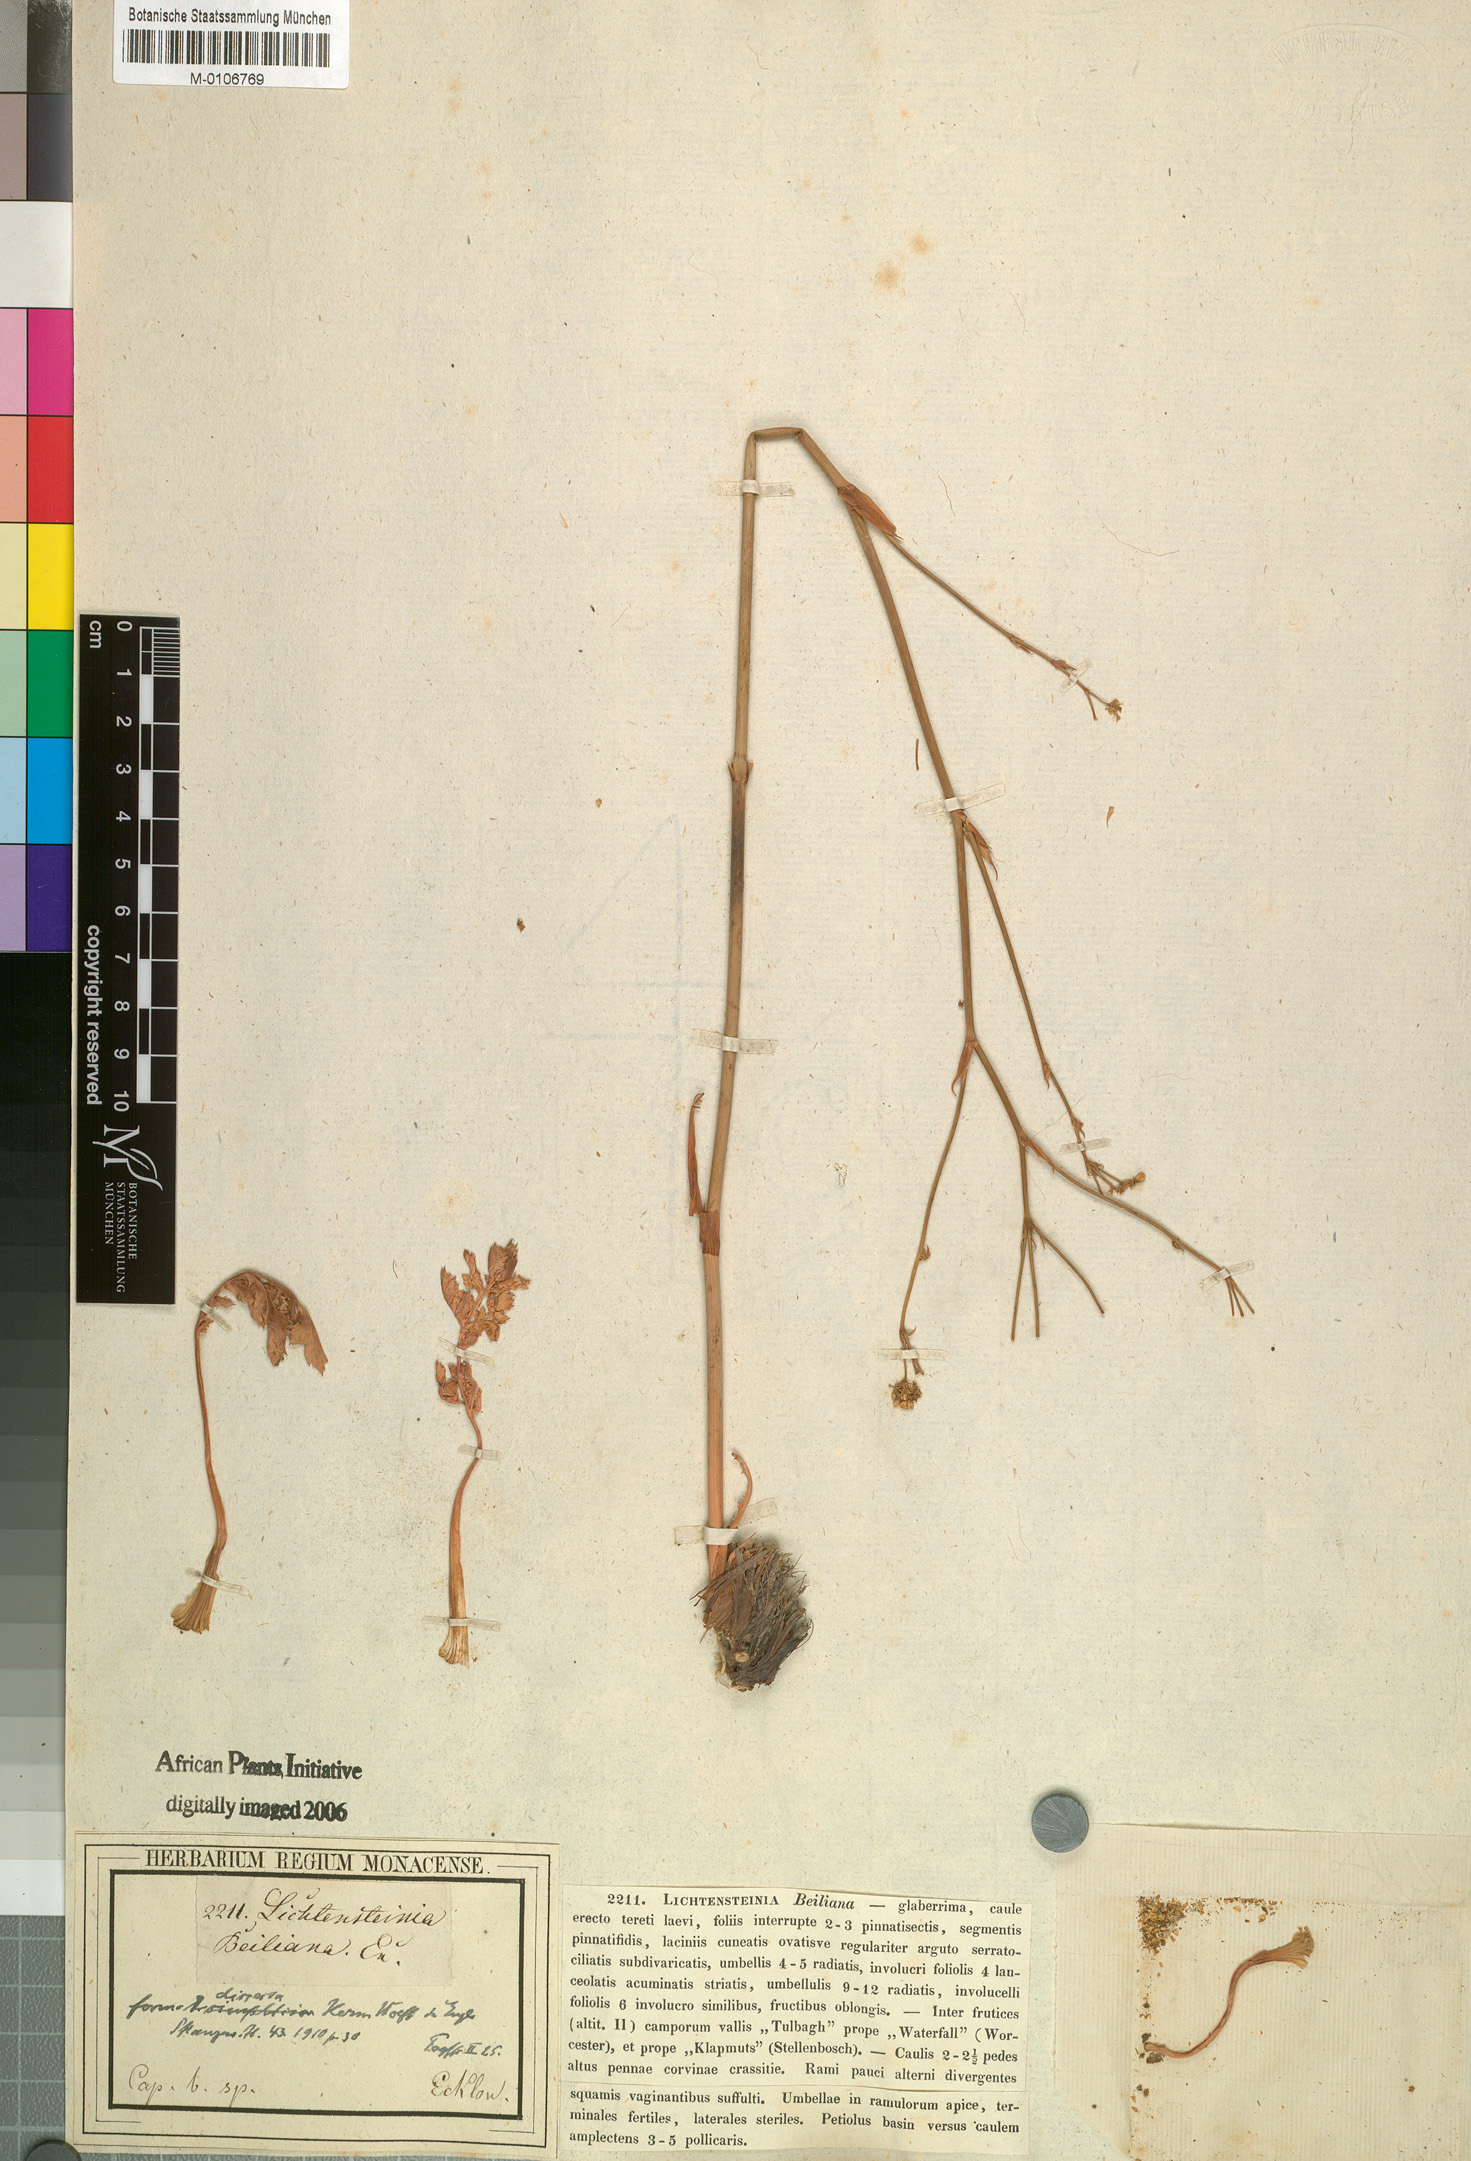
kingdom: Plantae
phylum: Tracheophyta
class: Magnoliopsida
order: Apiales
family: Apiaceae
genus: Lichtensteinia
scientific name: Lichtensteinia obscura
